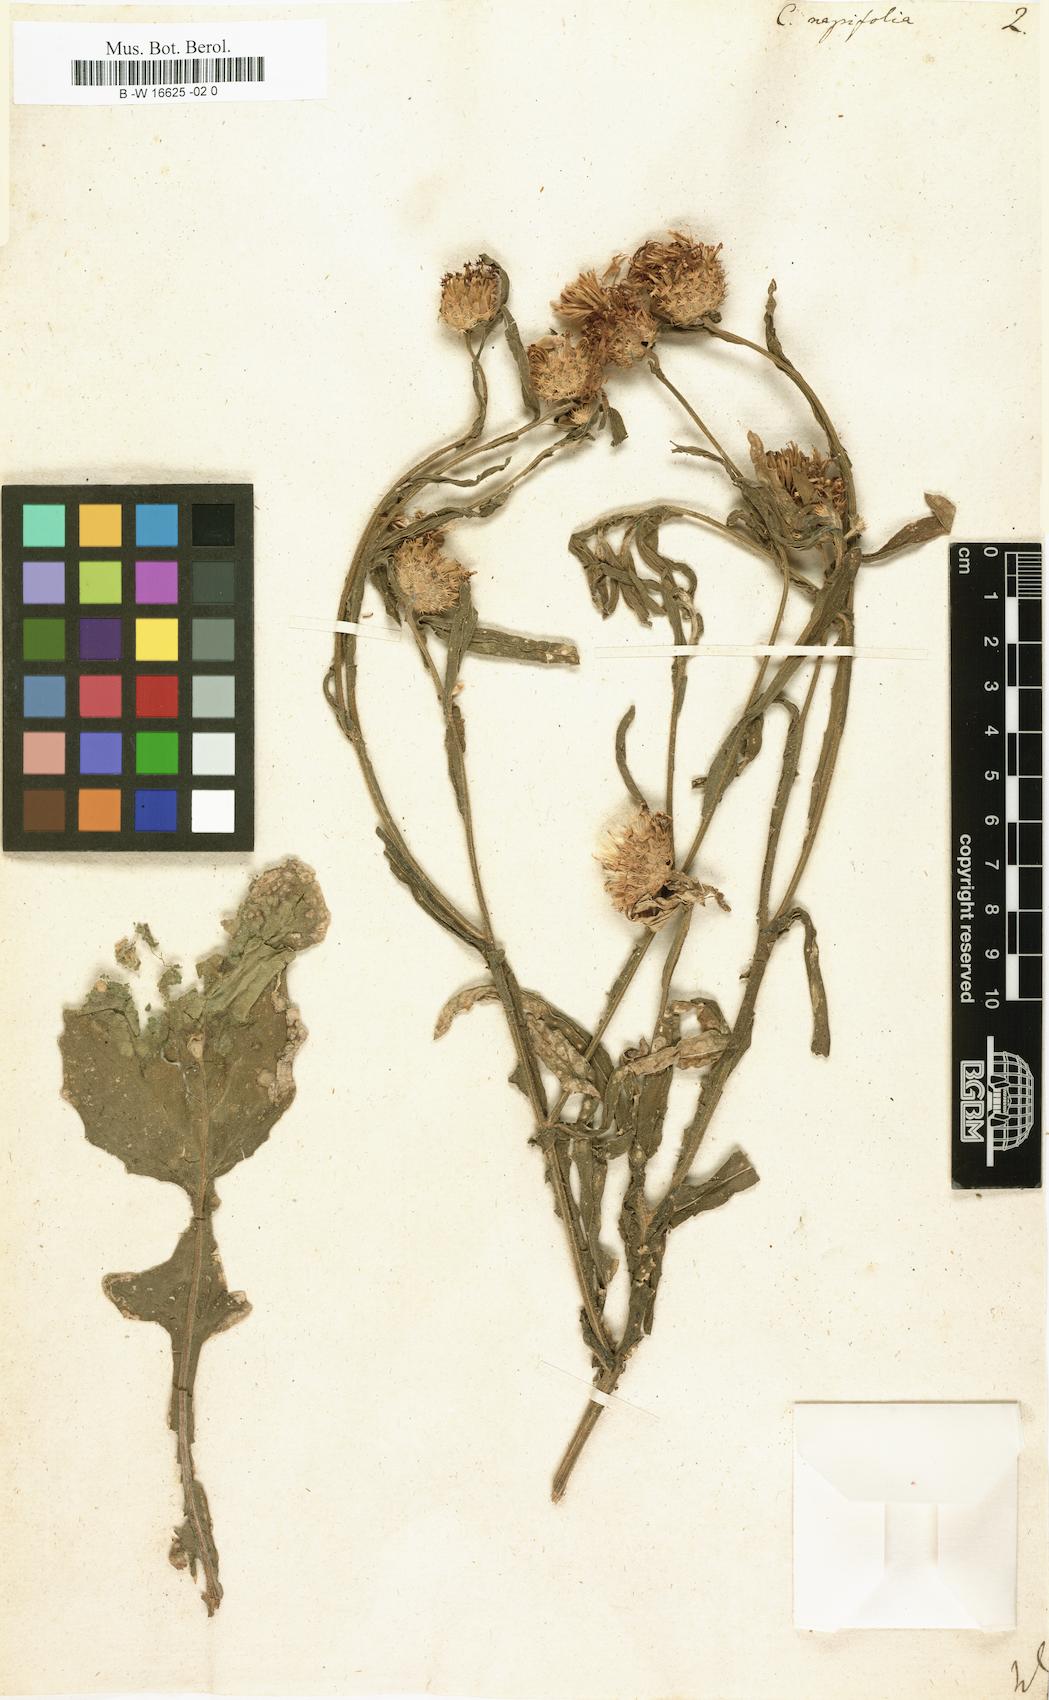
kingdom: Plantae
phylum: Tracheophyta
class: Magnoliopsida
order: Asterales
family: Asteraceae
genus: Centaurea
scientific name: Centaurea napifolia
